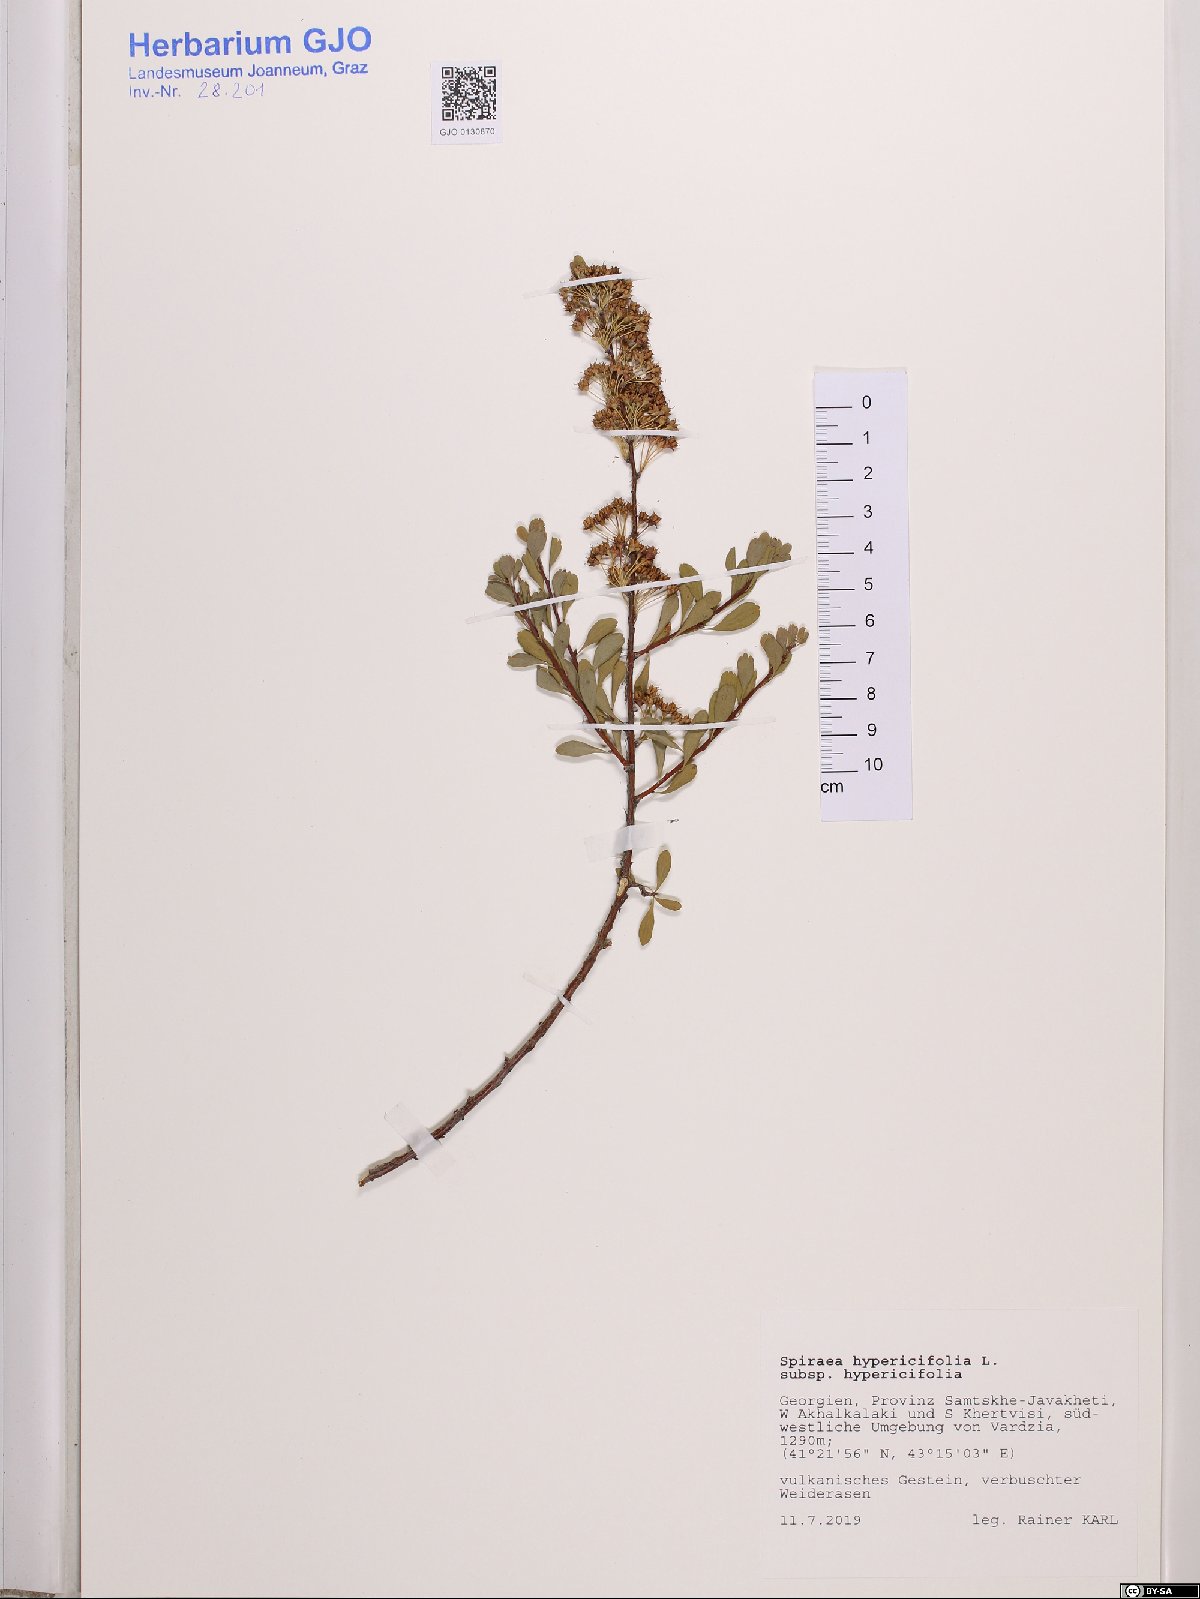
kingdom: Plantae
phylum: Tracheophyta
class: Magnoliopsida
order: Rosales
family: Rosaceae
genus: Spiraea
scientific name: Spiraea hypericifolia
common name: Iberian spirea
